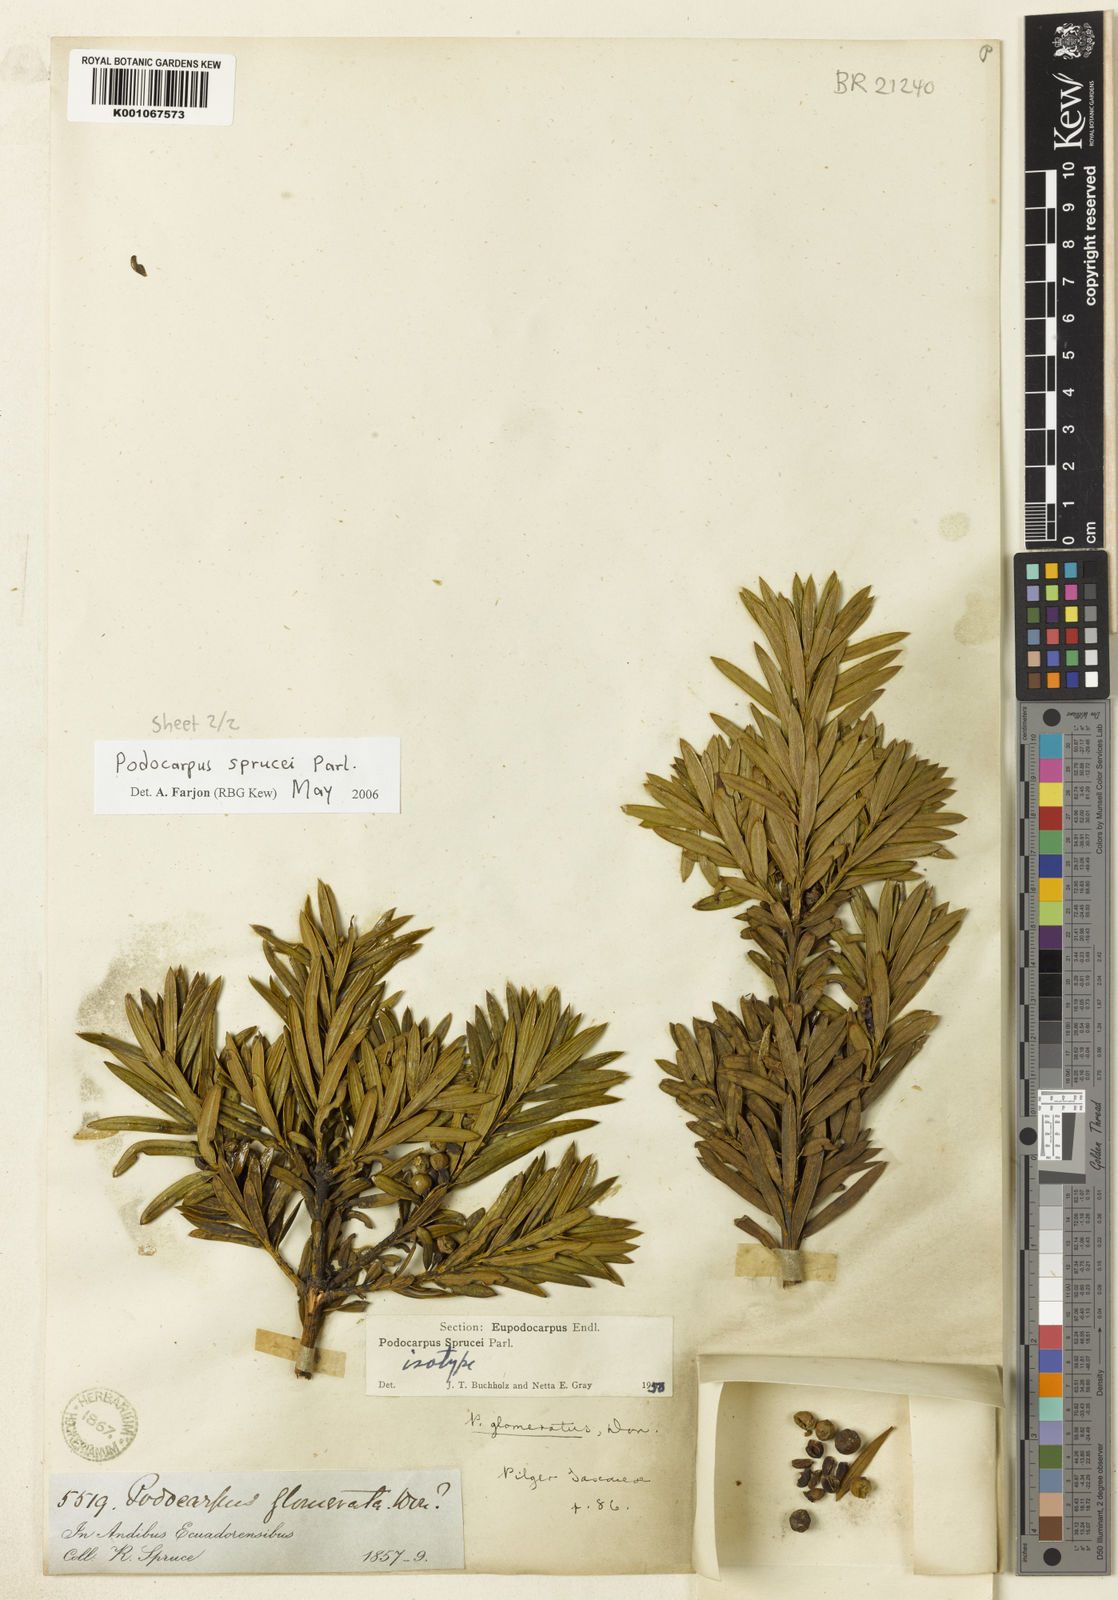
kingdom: Plantae
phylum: Tracheophyta
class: Pinopsida
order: Pinales
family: Podocarpaceae
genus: Podocarpus
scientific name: Podocarpus sprucei
